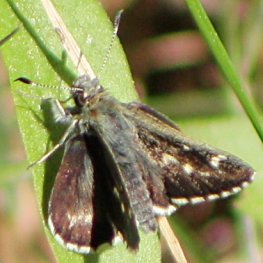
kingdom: Animalia
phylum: Arthropoda
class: Insecta
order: Lepidoptera
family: Hesperiidae
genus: Mastor
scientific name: Mastor hegon
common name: Pepper and Salt Skipper
